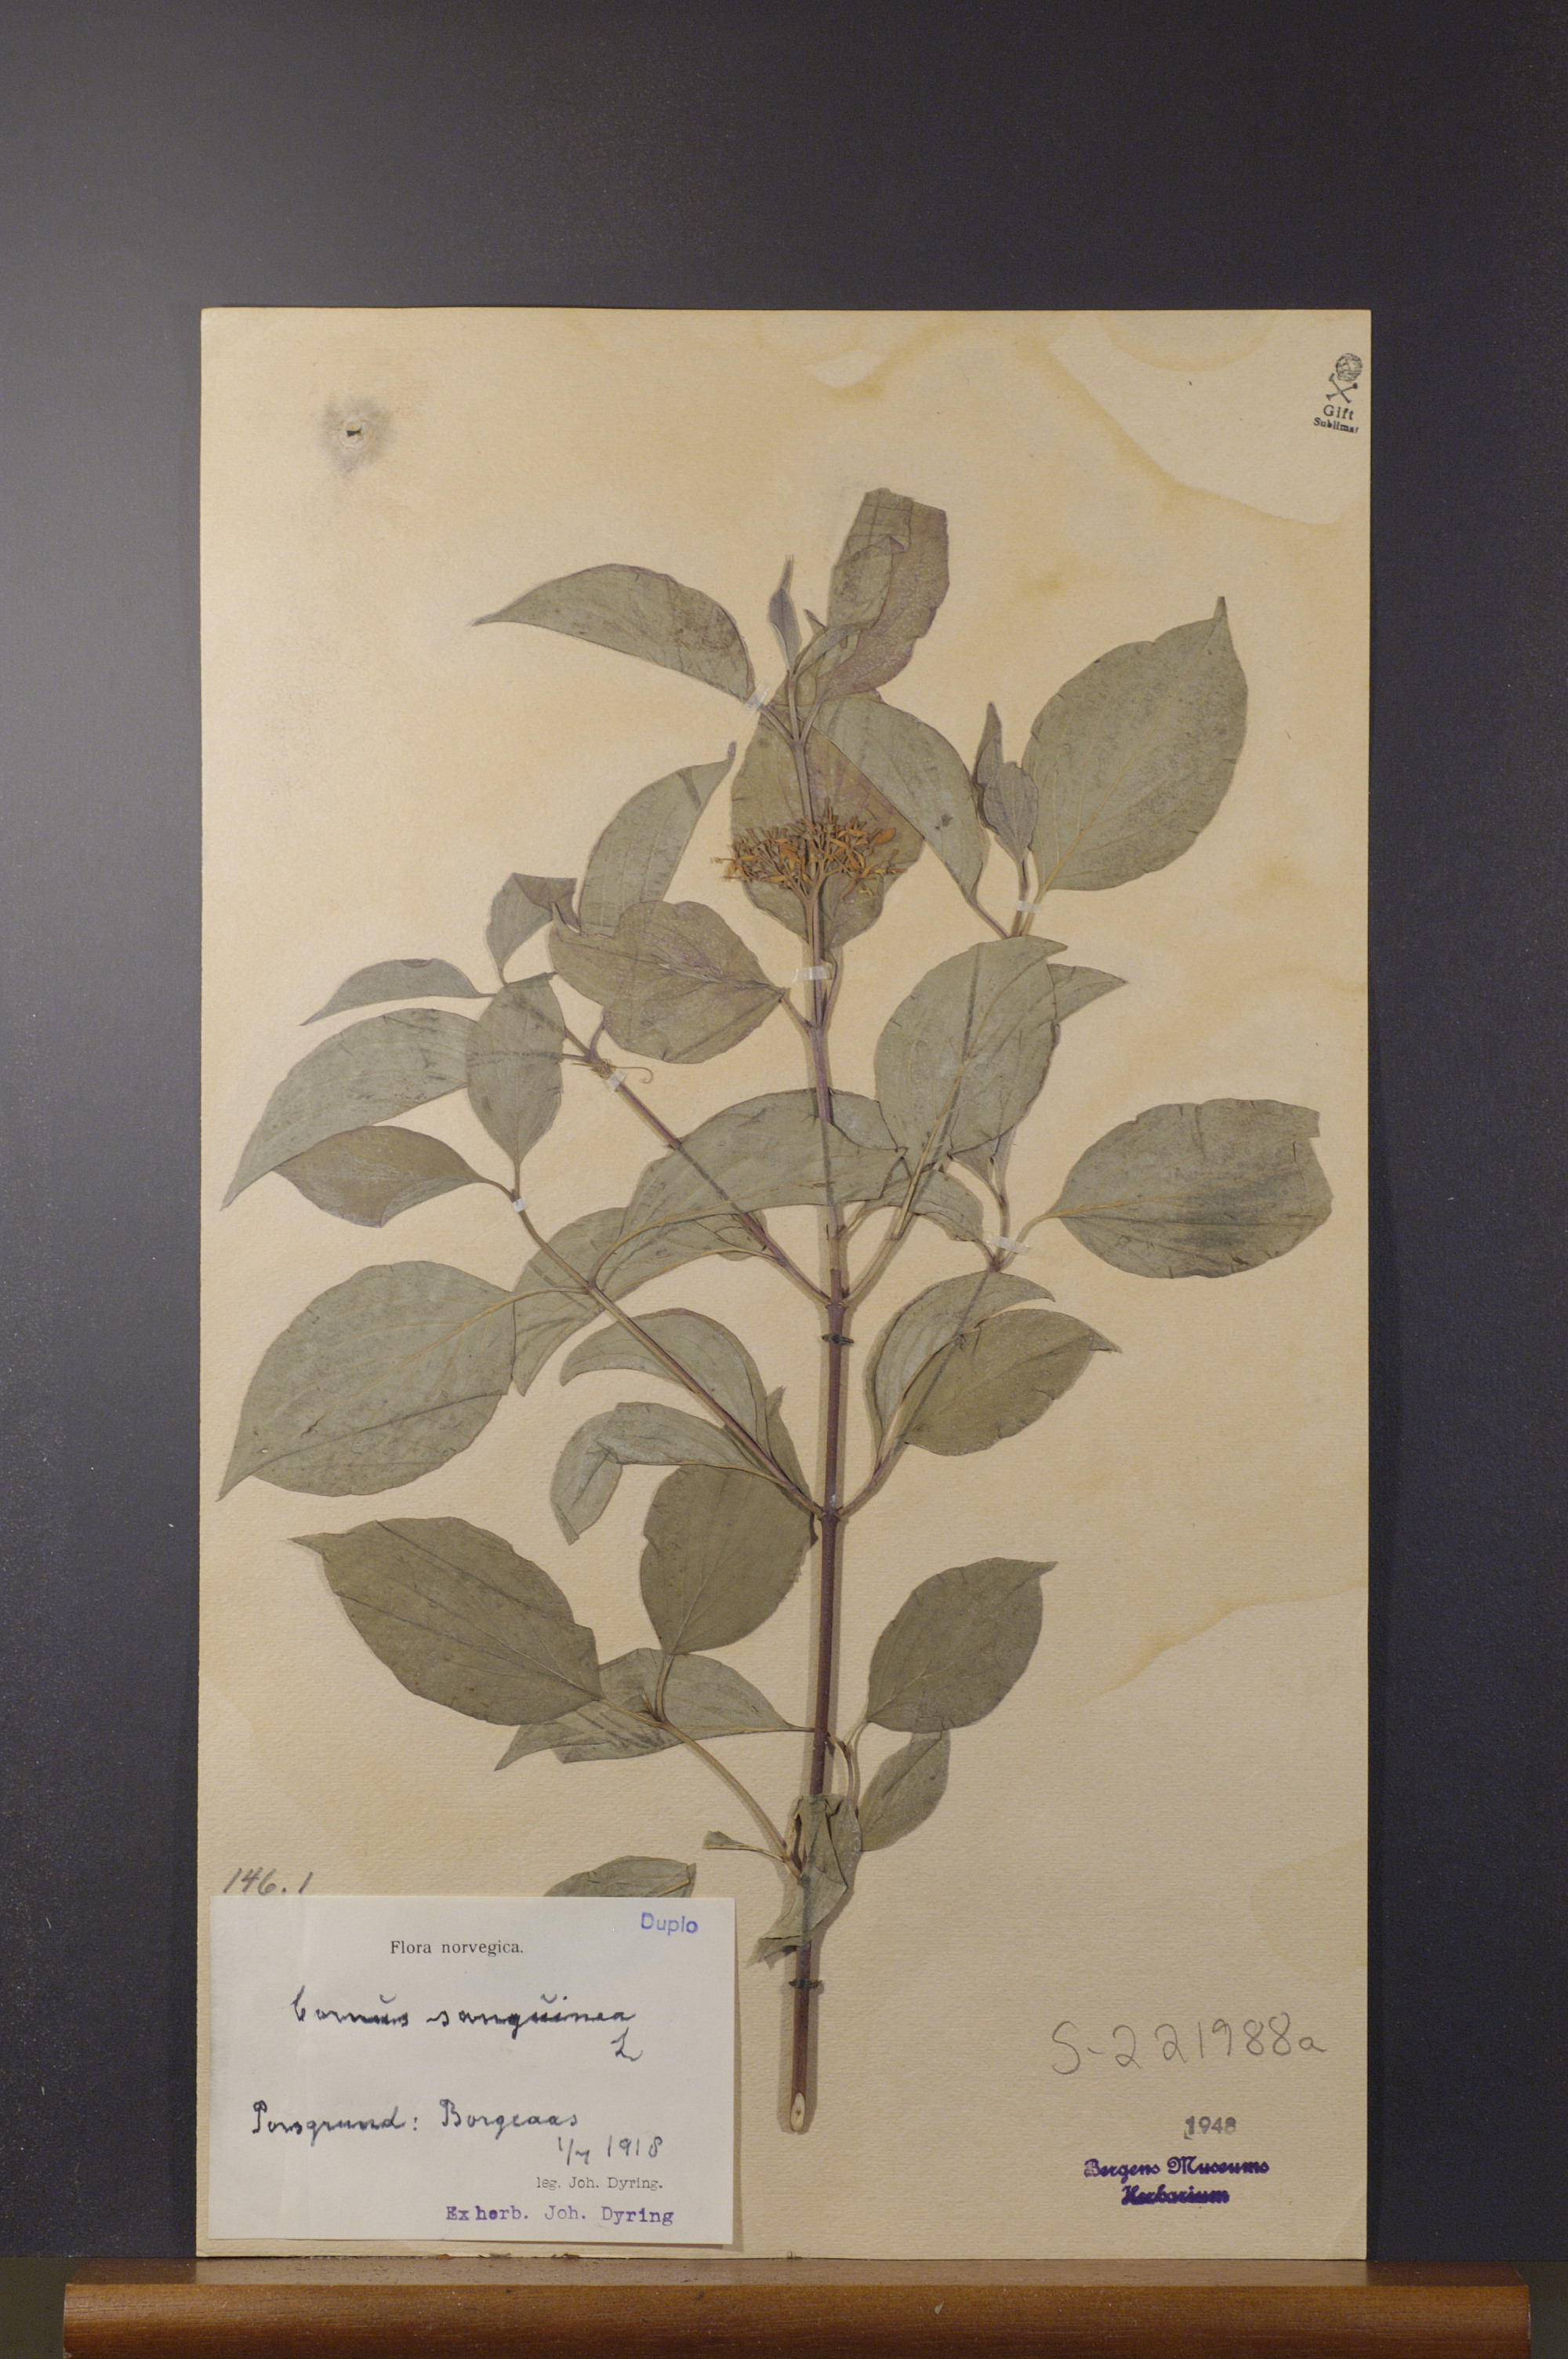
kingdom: Plantae
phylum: Tracheophyta
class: Magnoliopsida
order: Cornales
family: Cornaceae
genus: Cornus
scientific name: Cornus sanguinea
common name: Dogwood
